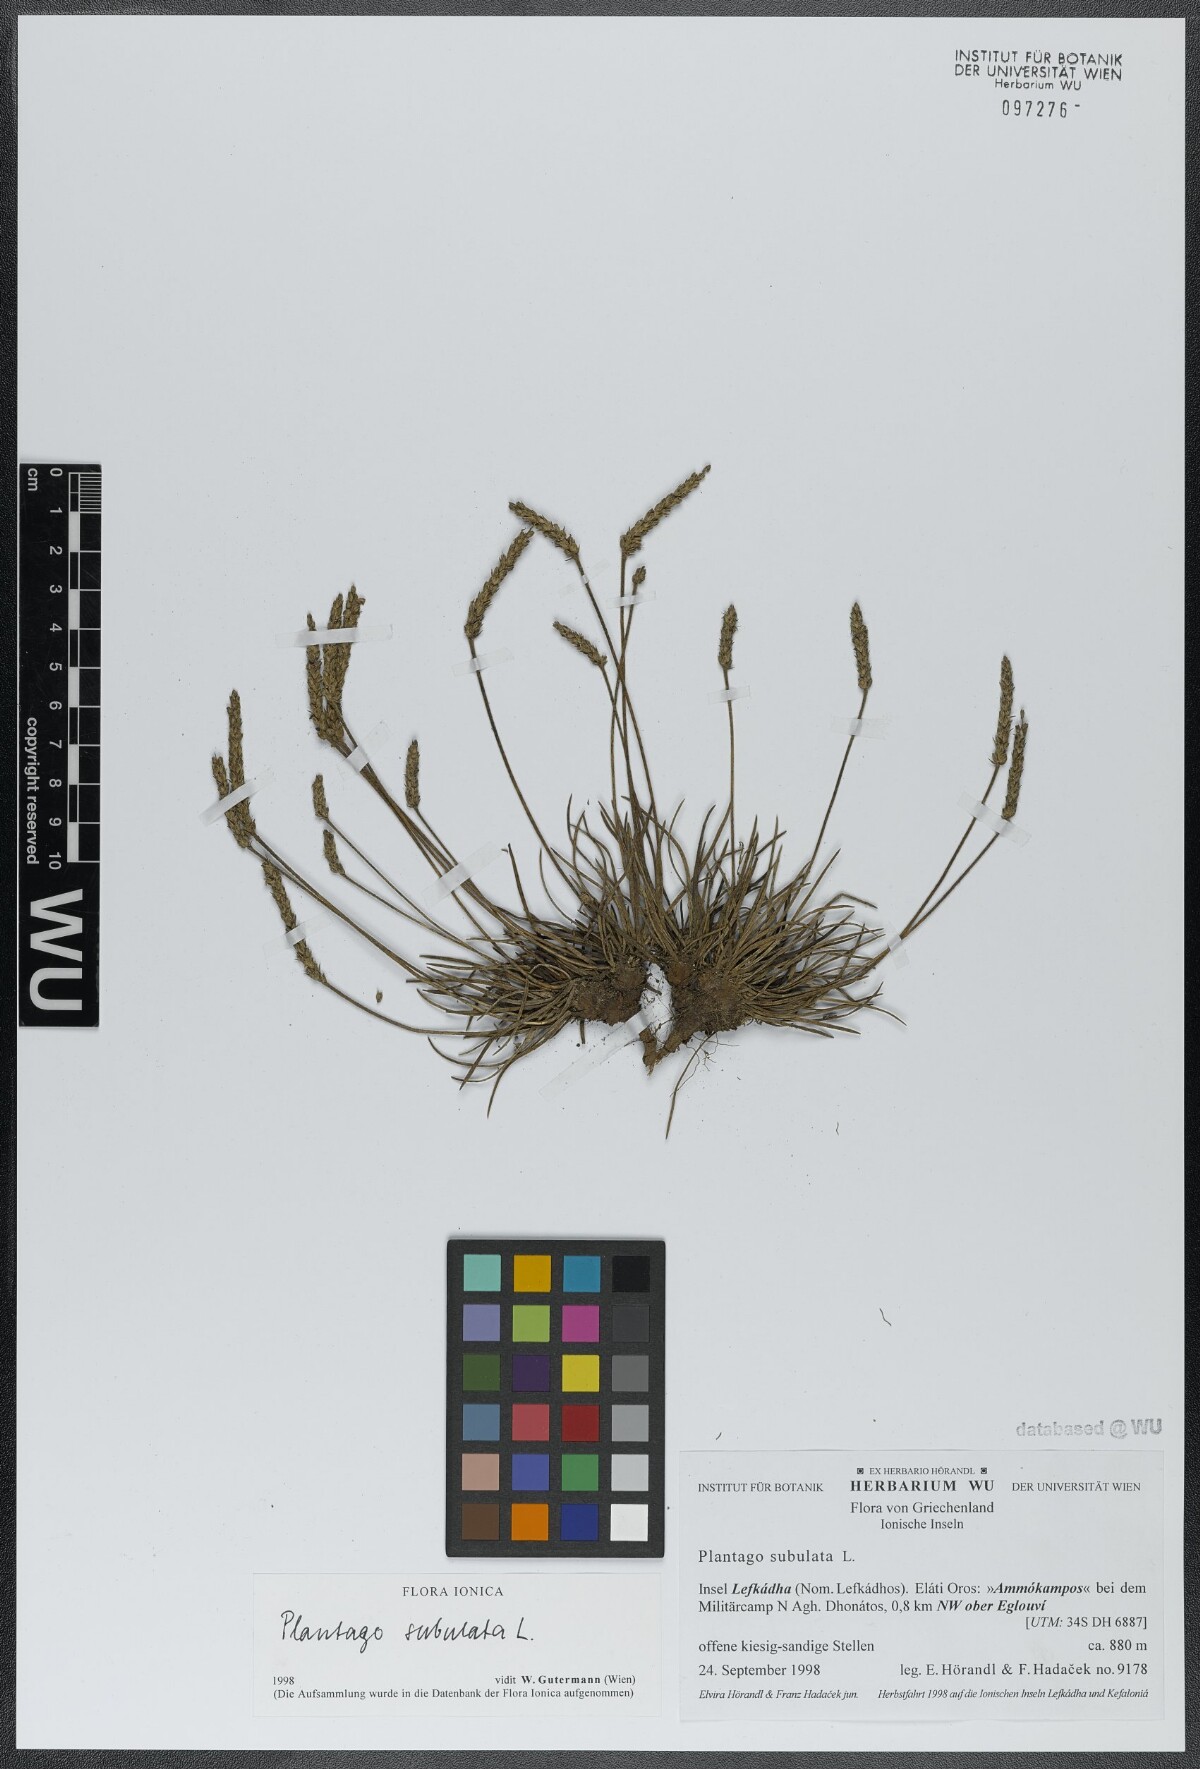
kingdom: Plantae
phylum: Tracheophyta
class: Magnoliopsida
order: Lamiales
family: Plantaginaceae
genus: Plantago
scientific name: Plantago subulata
